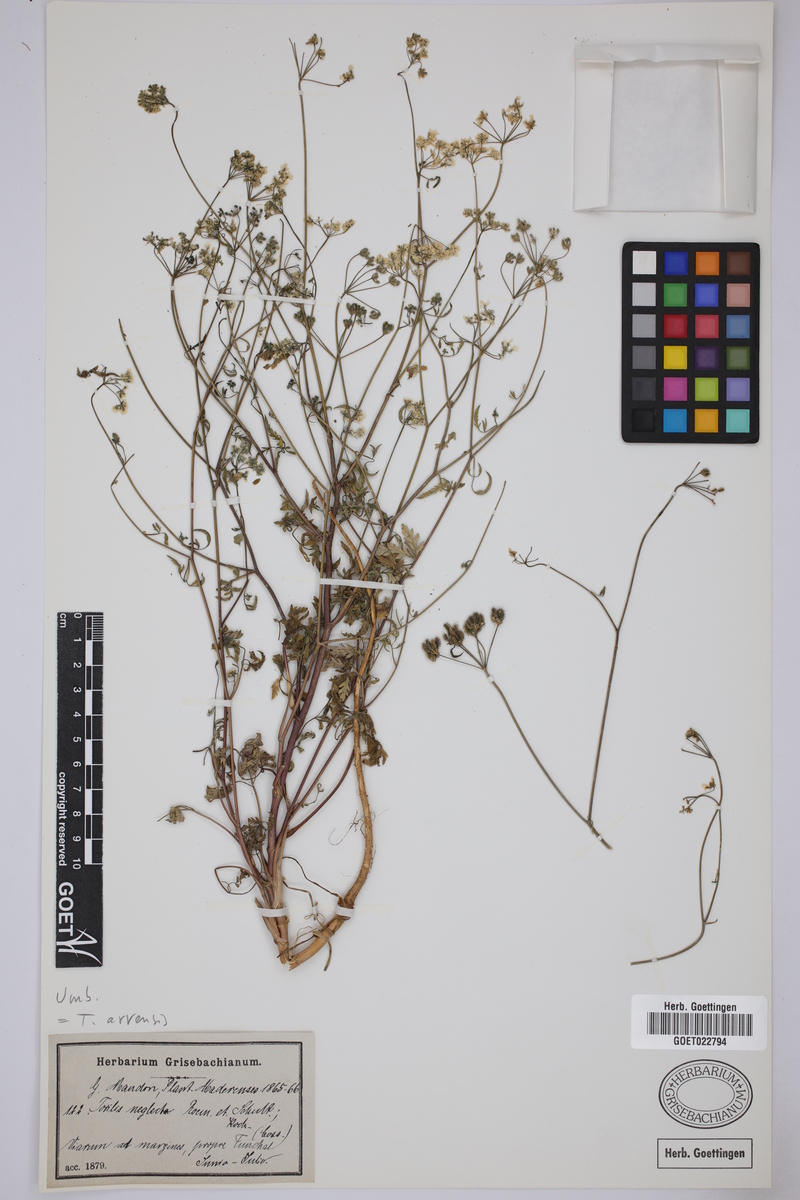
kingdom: Plantae
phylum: Tracheophyta
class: Magnoliopsida
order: Apiales
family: Apiaceae
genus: Torilis
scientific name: Torilis arvensis
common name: Spreading hedge-parsley
